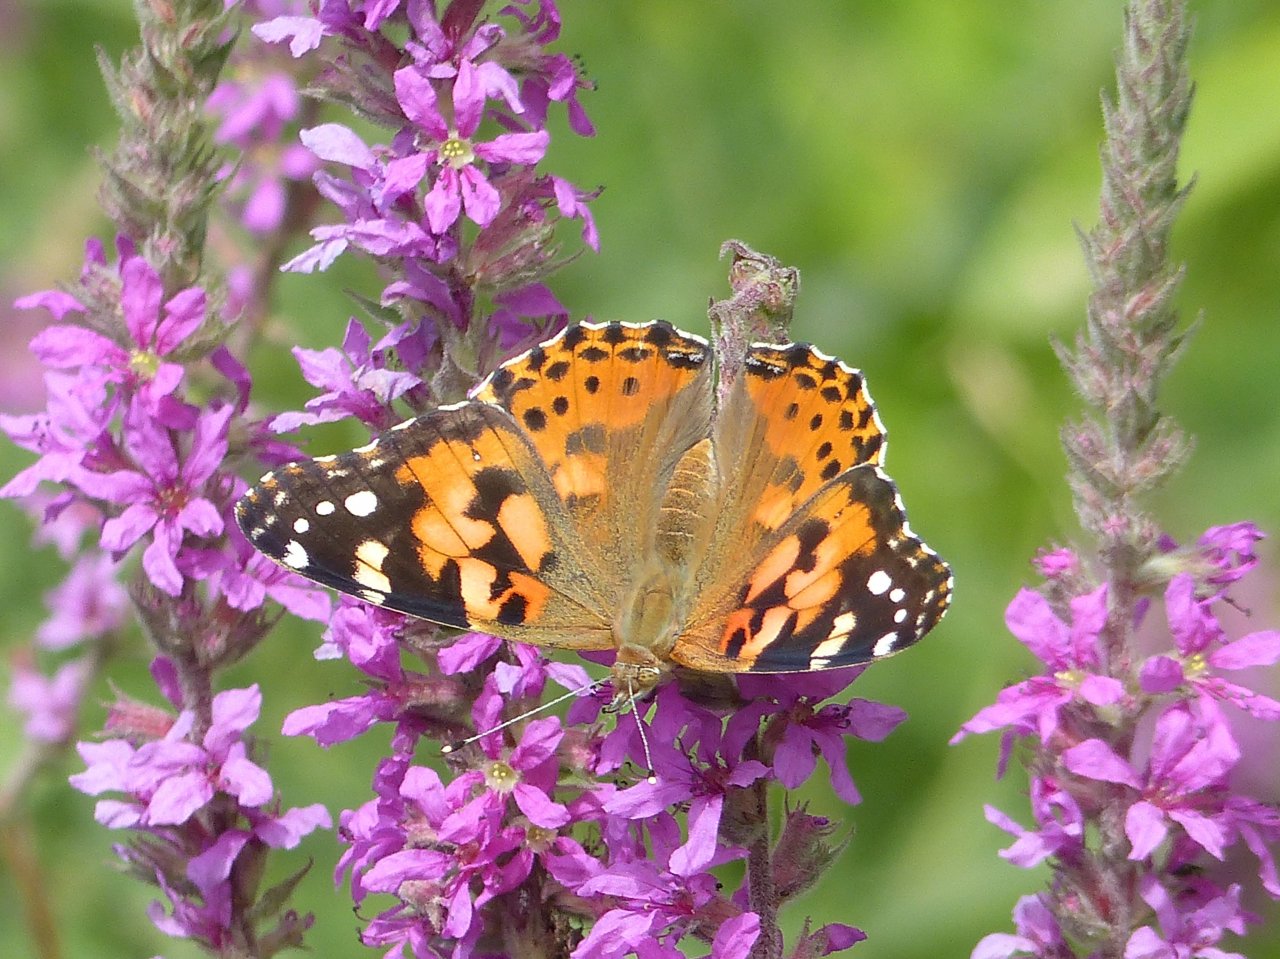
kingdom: Animalia
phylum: Arthropoda
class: Insecta
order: Lepidoptera
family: Nymphalidae
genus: Vanessa
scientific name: Vanessa cardui
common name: Painted Lady
